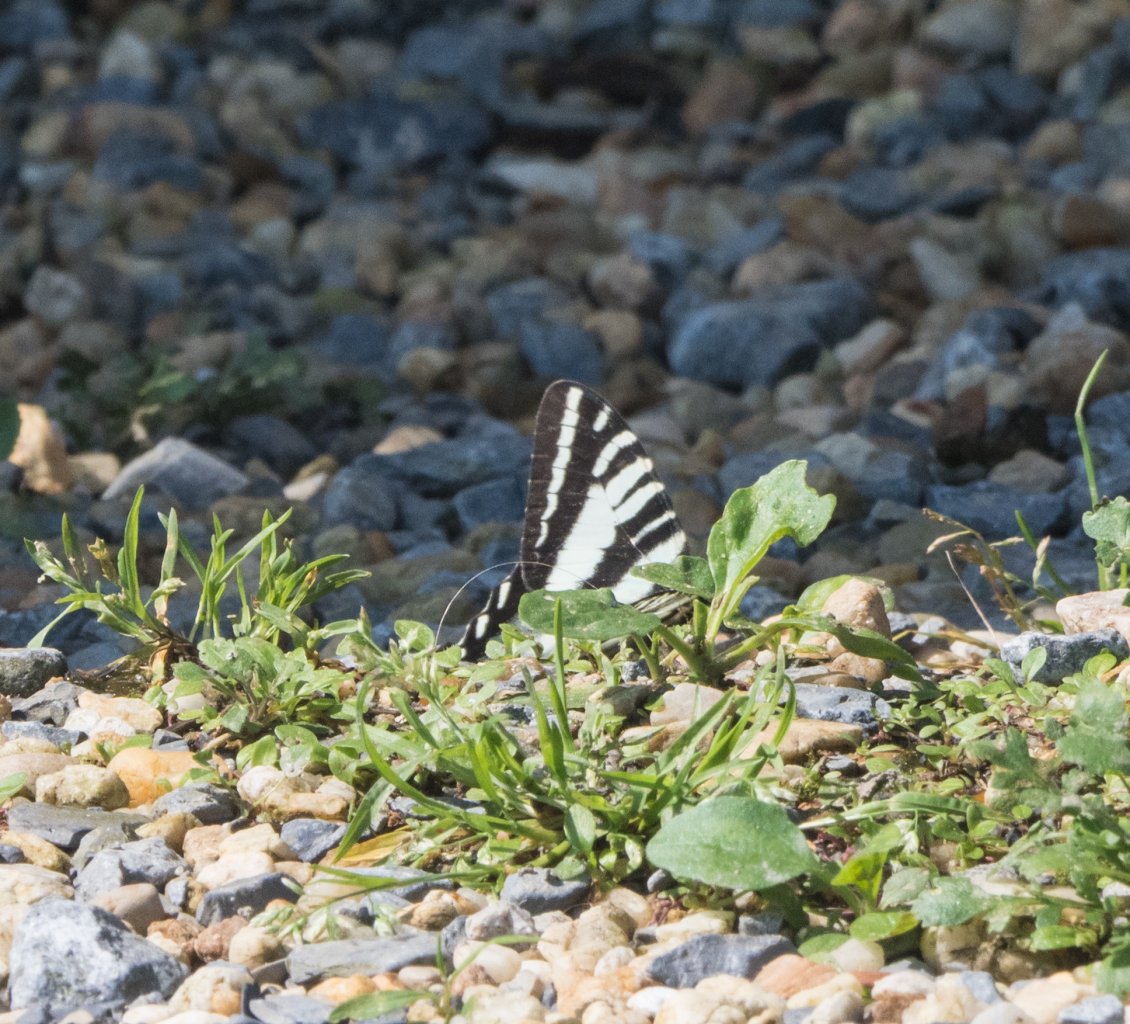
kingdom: Animalia
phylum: Arthropoda
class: Insecta
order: Lepidoptera
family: Papilionidae
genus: Protographium
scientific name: Protographium marcellus
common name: Zebra Swallowtail
